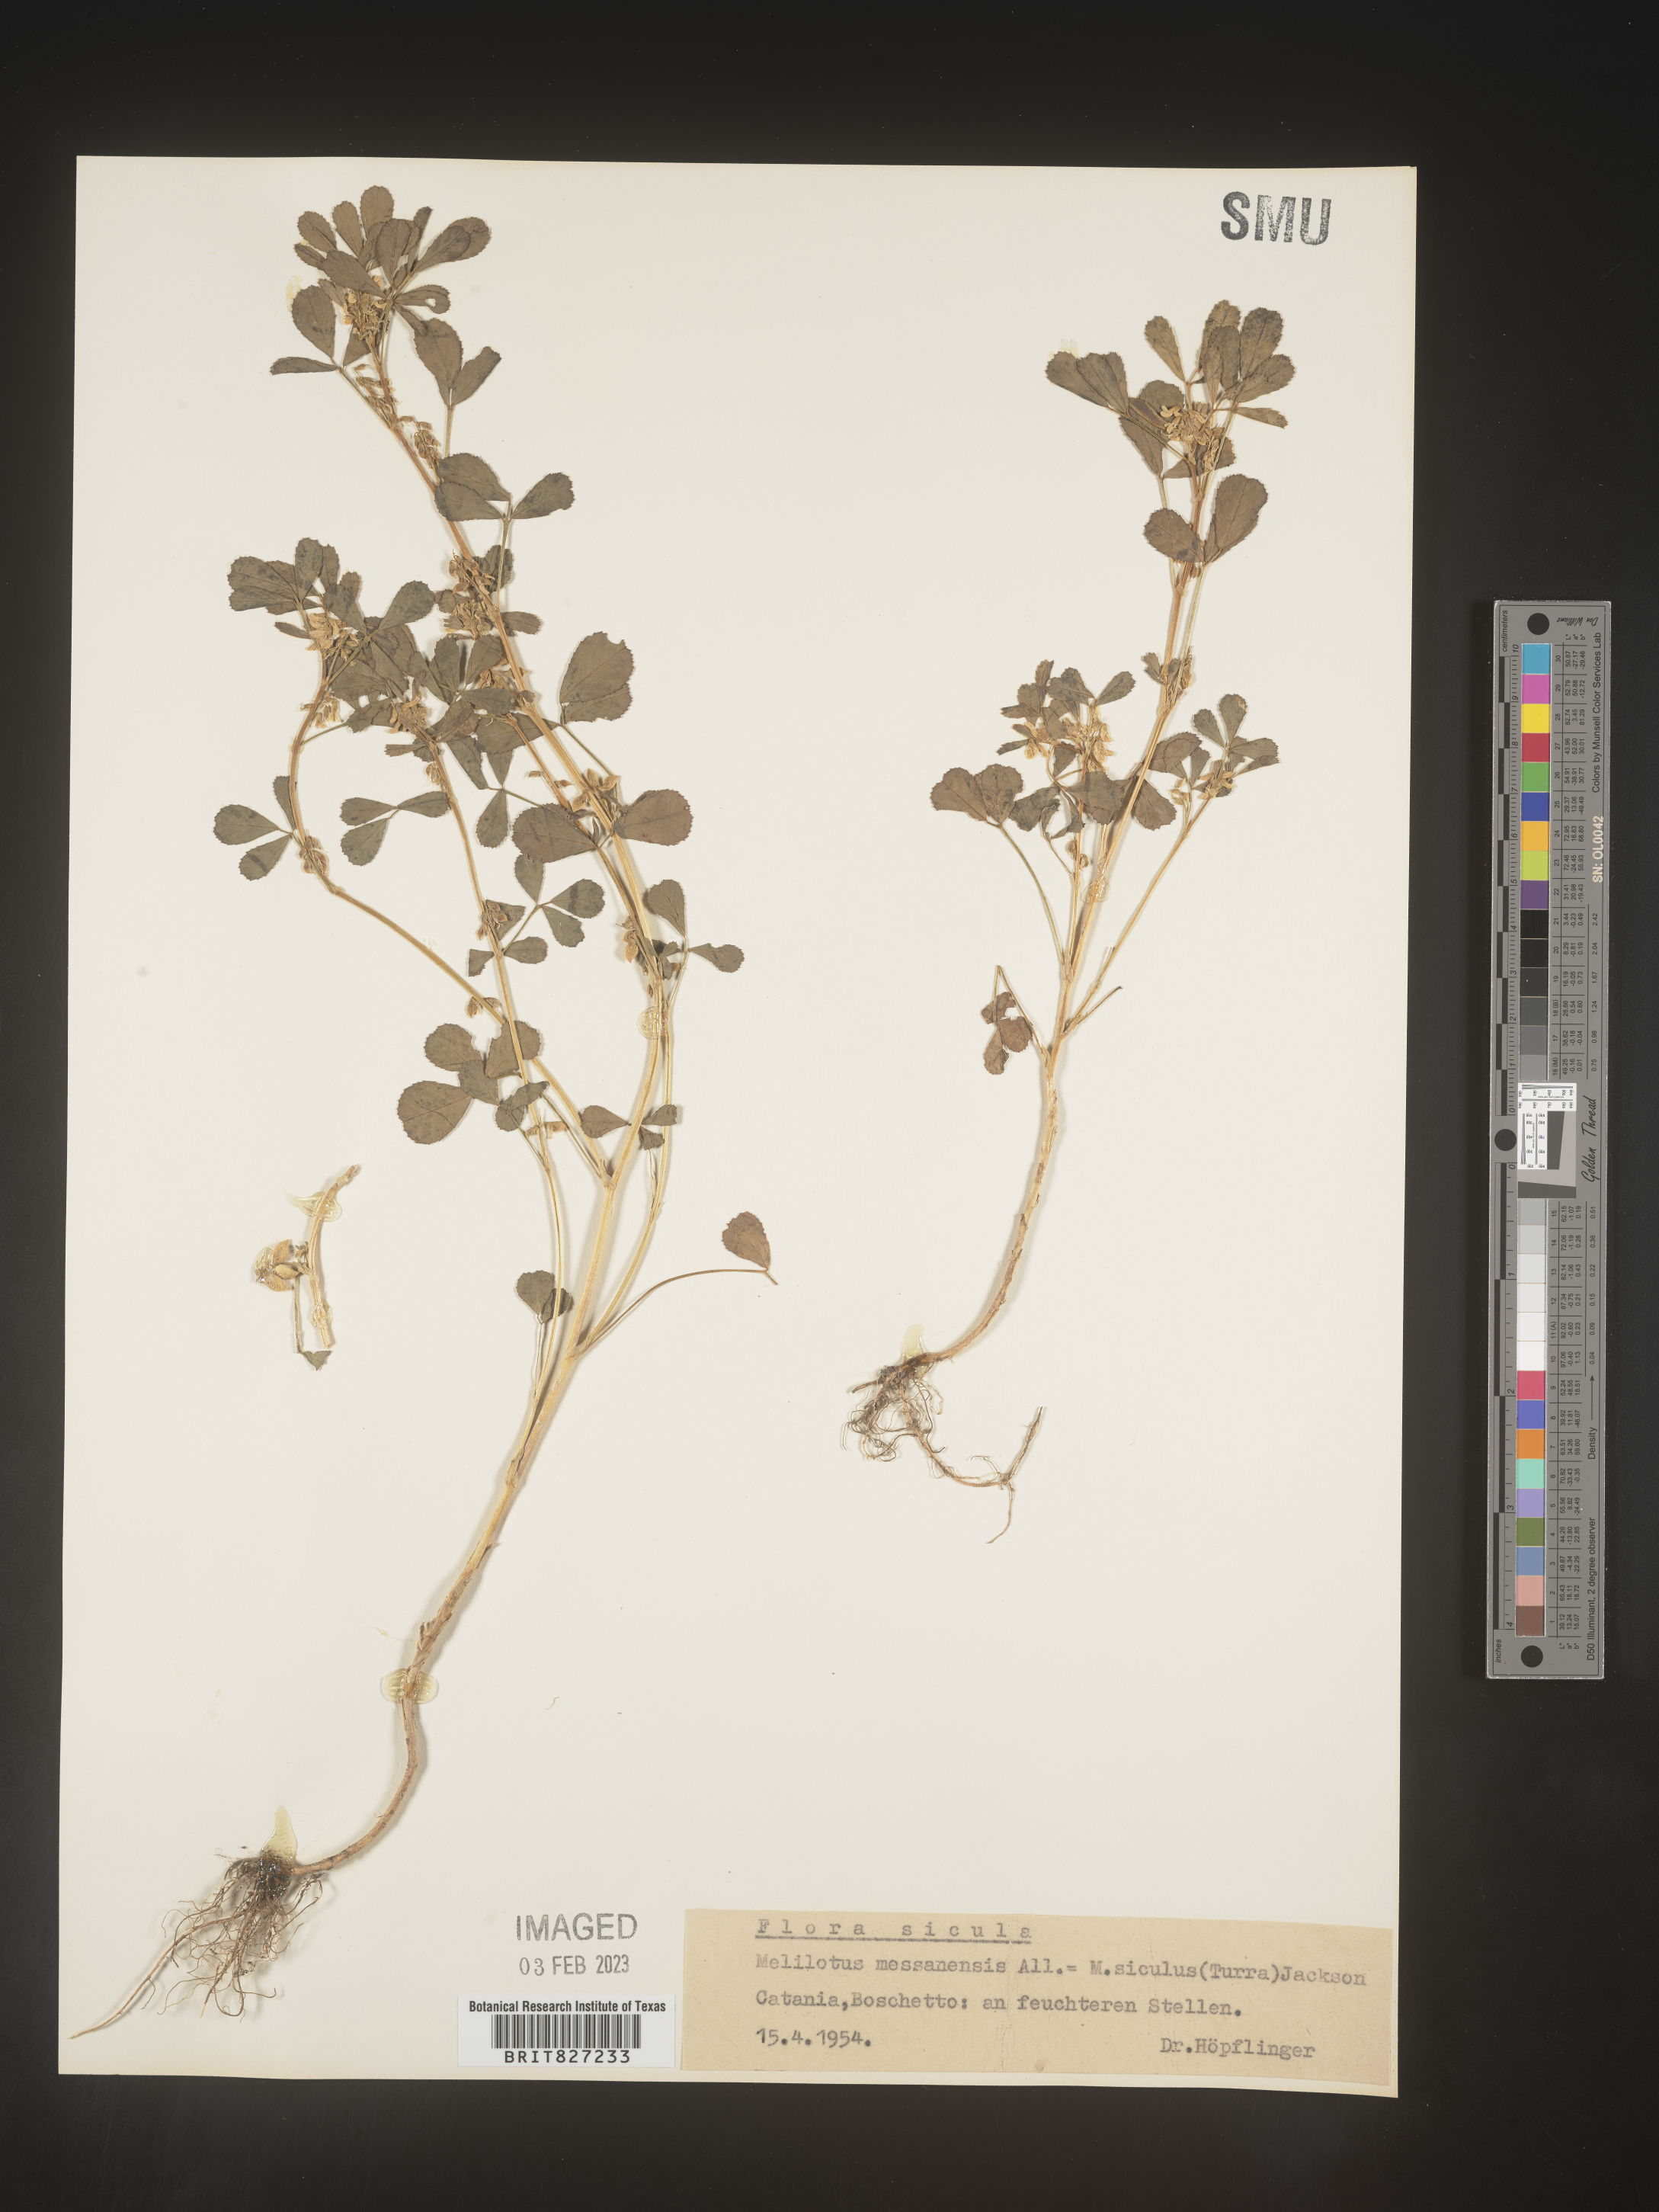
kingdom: Plantae
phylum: Tracheophyta
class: Magnoliopsida
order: Fabales
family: Fabaceae
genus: Melilotus
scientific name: Melilotus
